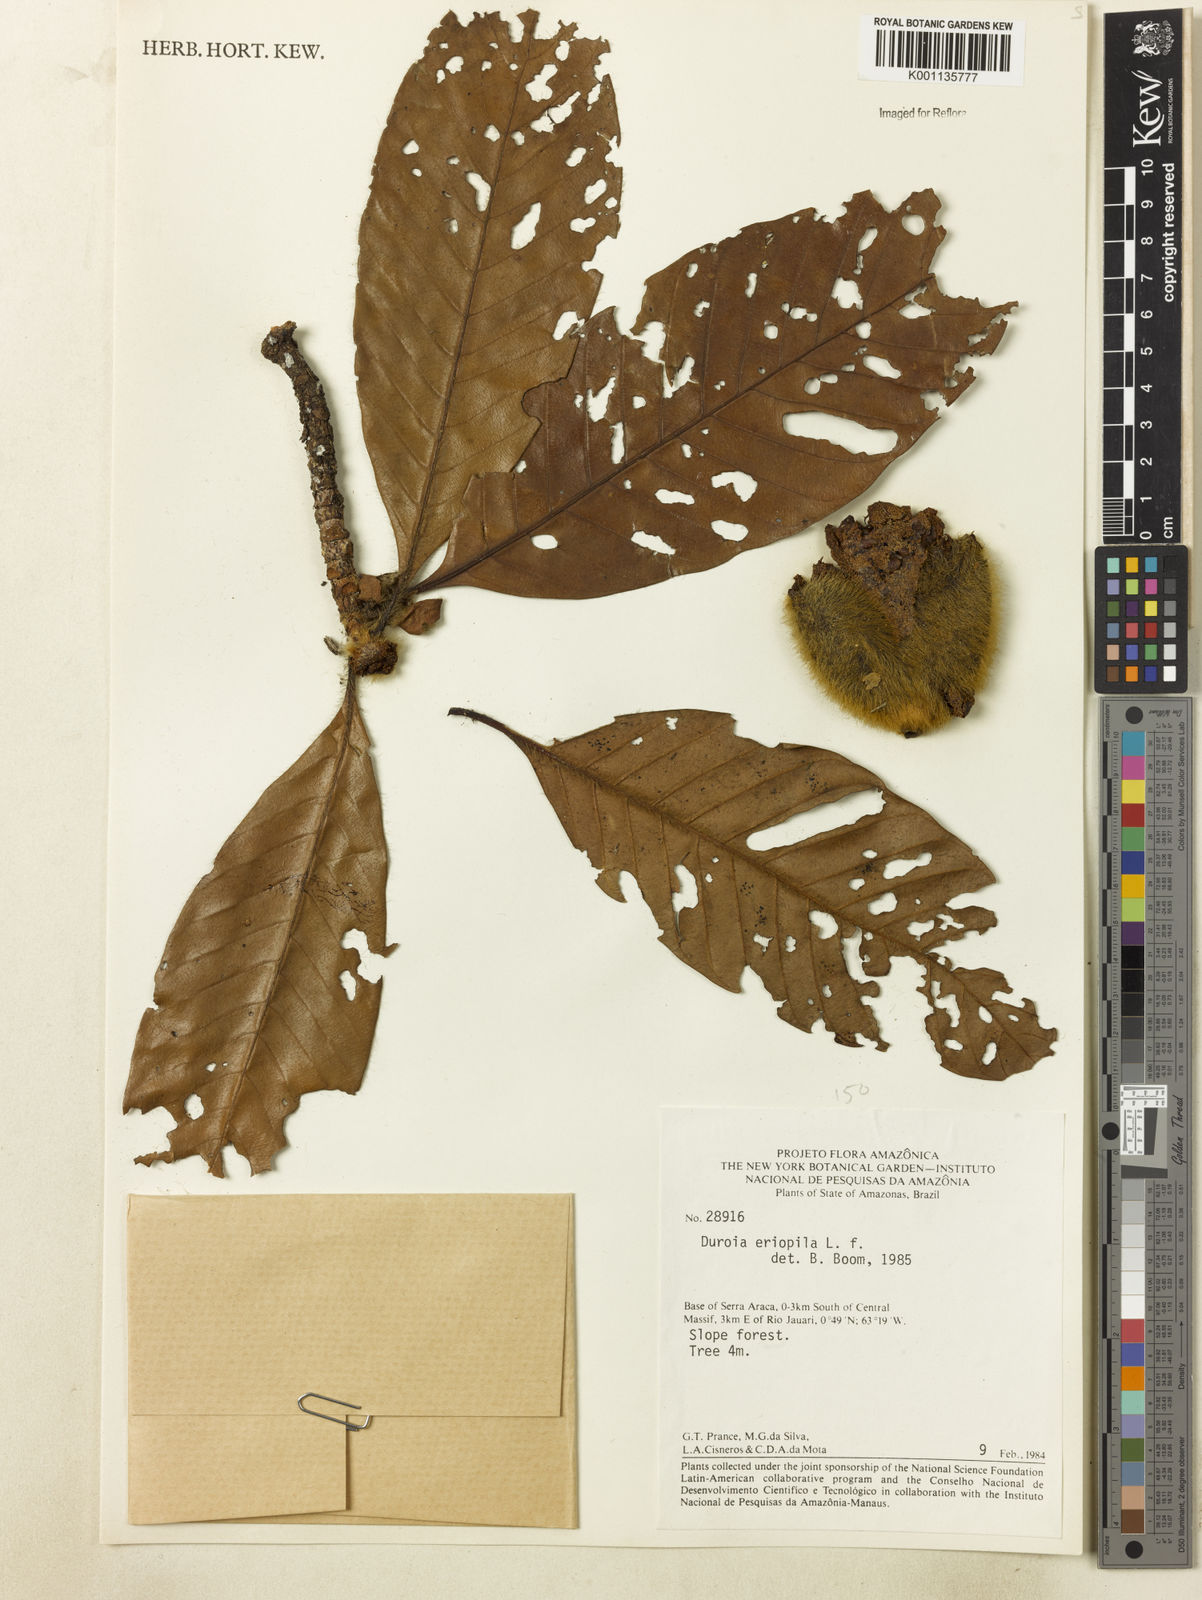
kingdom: Plantae
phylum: Tracheophyta
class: Magnoliopsida
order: Gentianales
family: Rubiaceae
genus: Duroia
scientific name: Duroia eriopila
